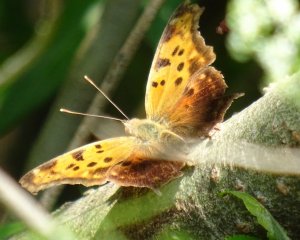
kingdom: Animalia
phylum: Arthropoda
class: Insecta
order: Lepidoptera
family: Nymphalidae
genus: Polygonia
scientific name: Polygonia interrogationis
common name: Question Mark
